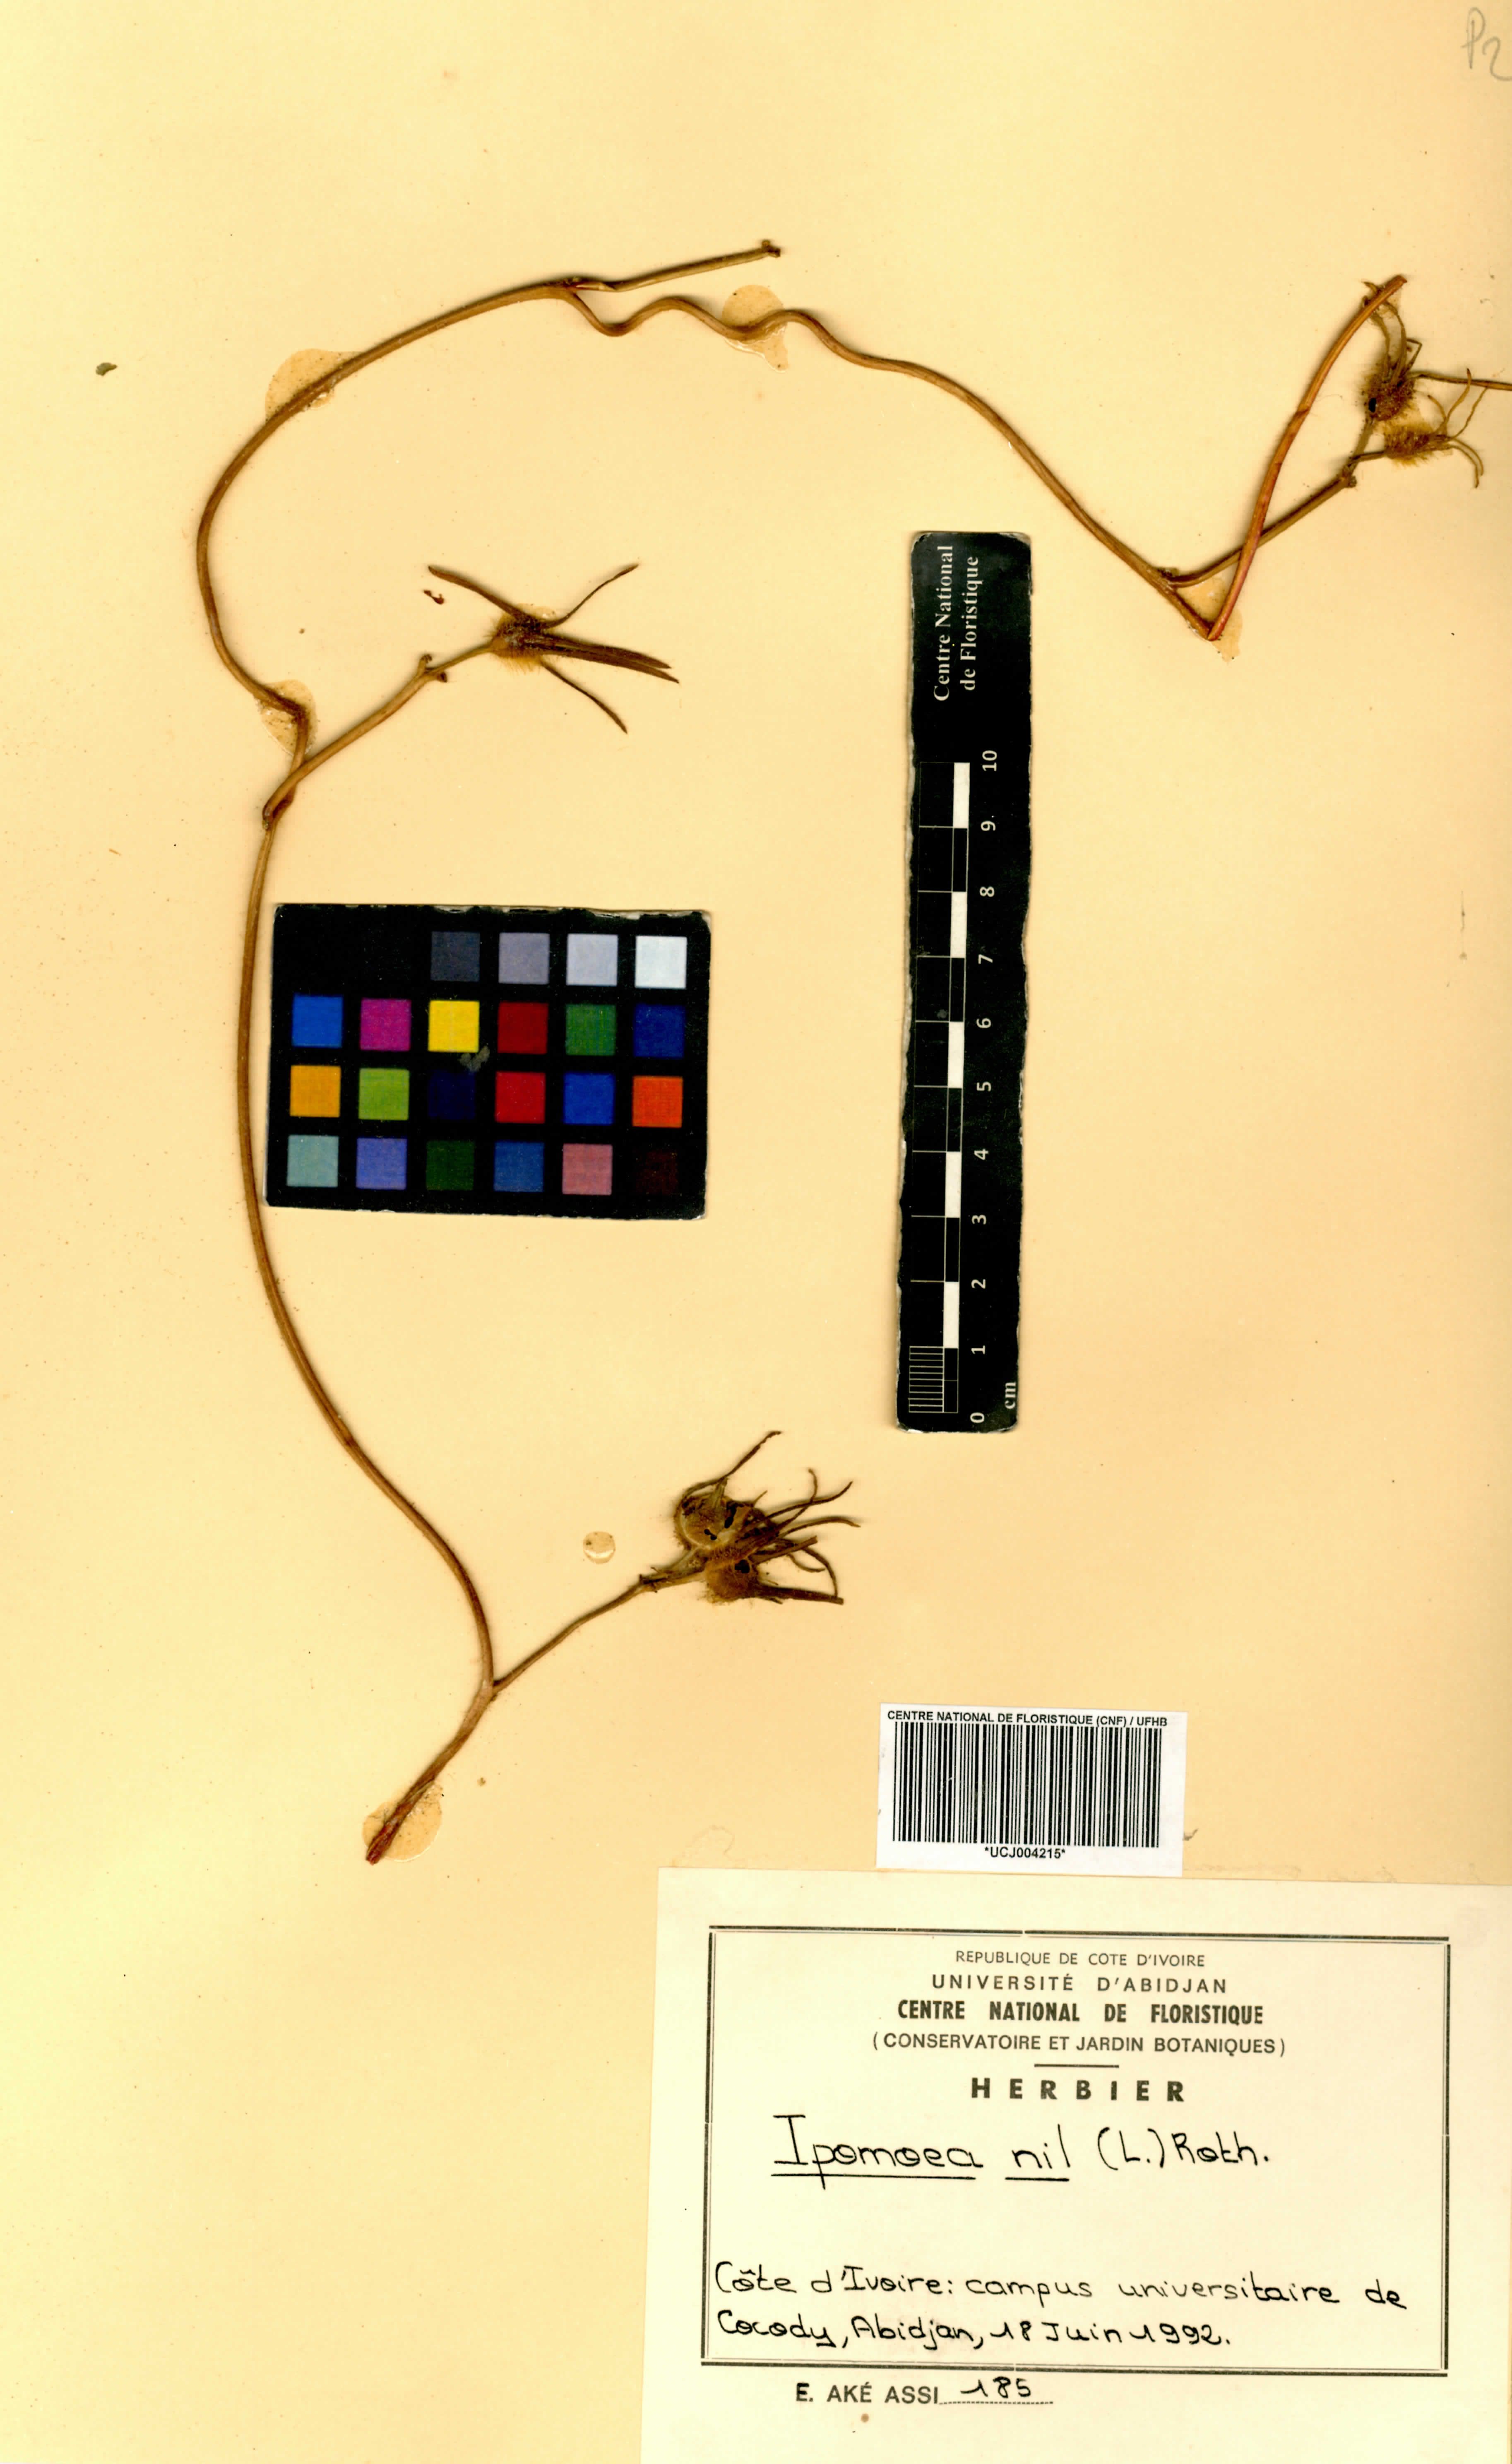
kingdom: Plantae
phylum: Tracheophyta
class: Magnoliopsida
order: Solanales
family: Convolvulaceae
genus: Ipomoea
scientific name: Ipomoea nil
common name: Japanese morning-glory
